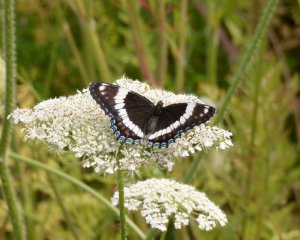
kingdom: Animalia
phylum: Arthropoda
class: Insecta
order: Lepidoptera
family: Nymphalidae
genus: Limenitis
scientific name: Limenitis arthemis
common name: Red-spotted Admiral
